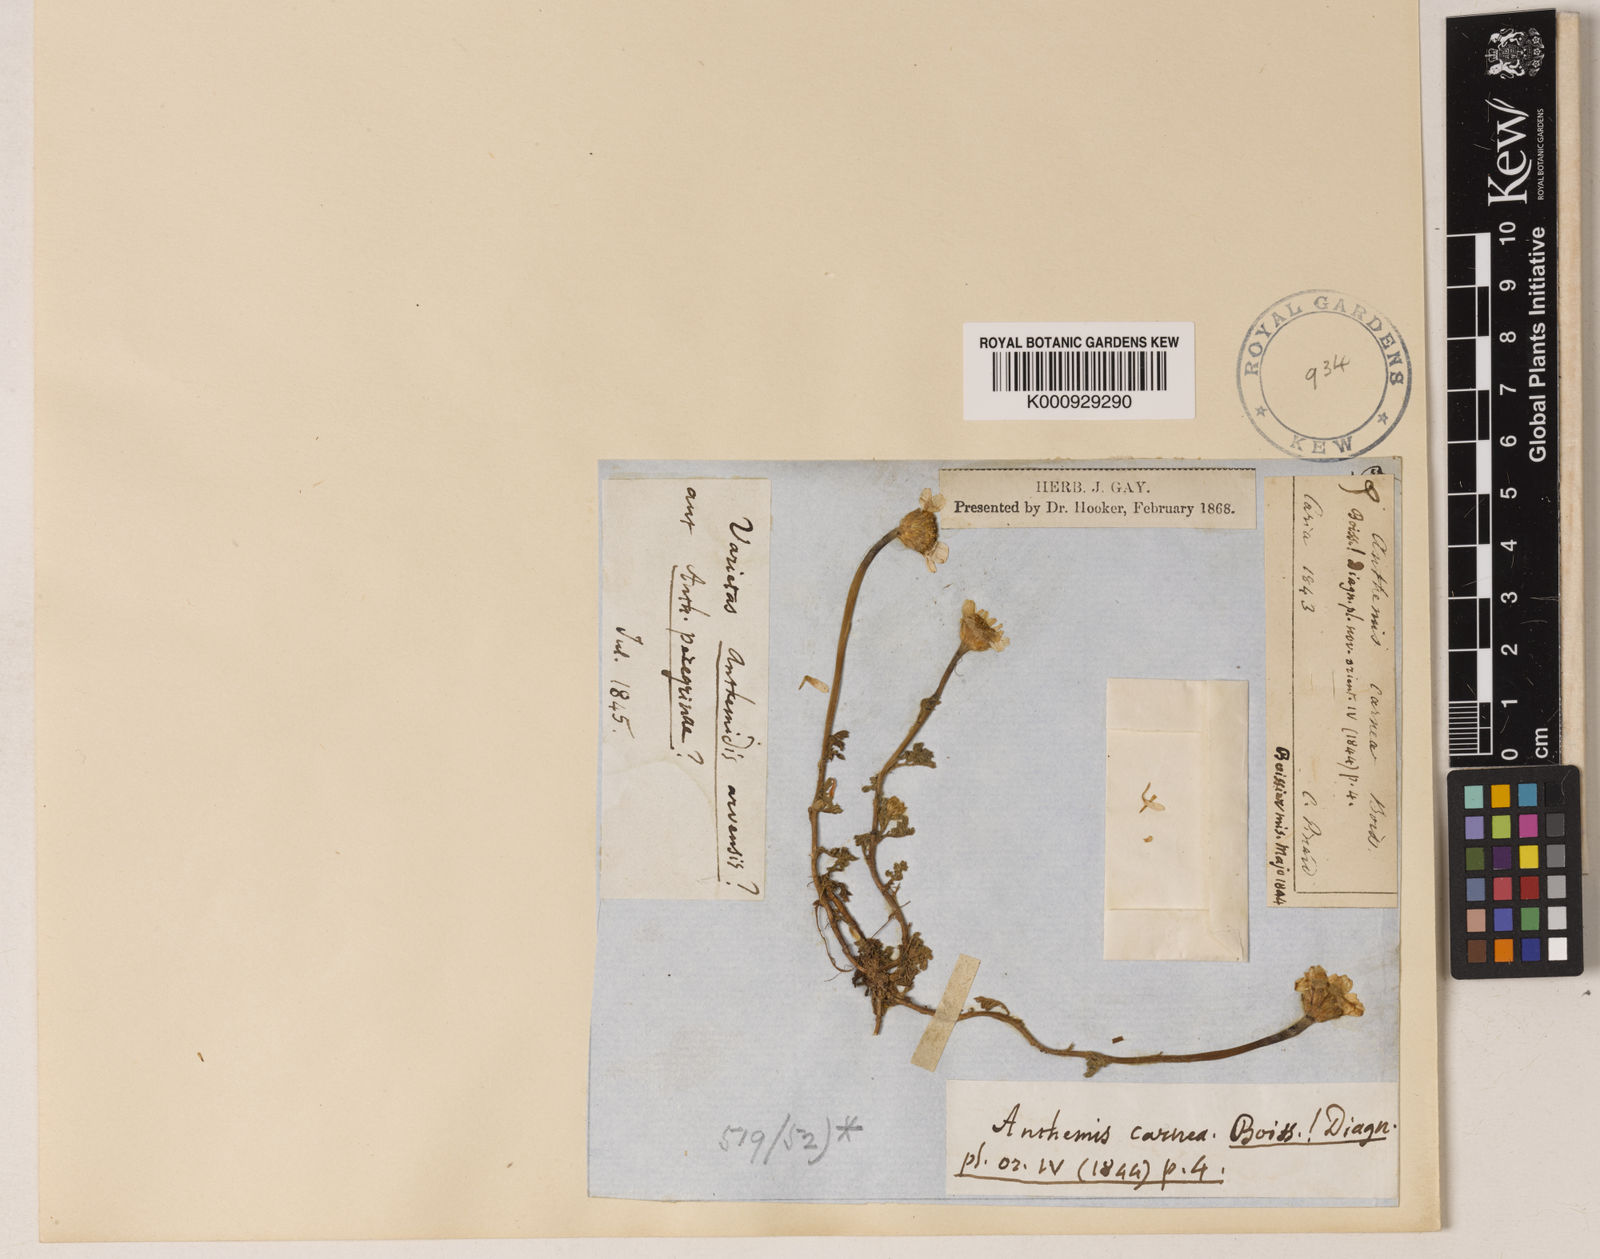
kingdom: Plantae
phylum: Tracheophyta
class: Magnoliopsida
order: Asterales
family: Asteraceae
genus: Anthemis
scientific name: Anthemis rosea
